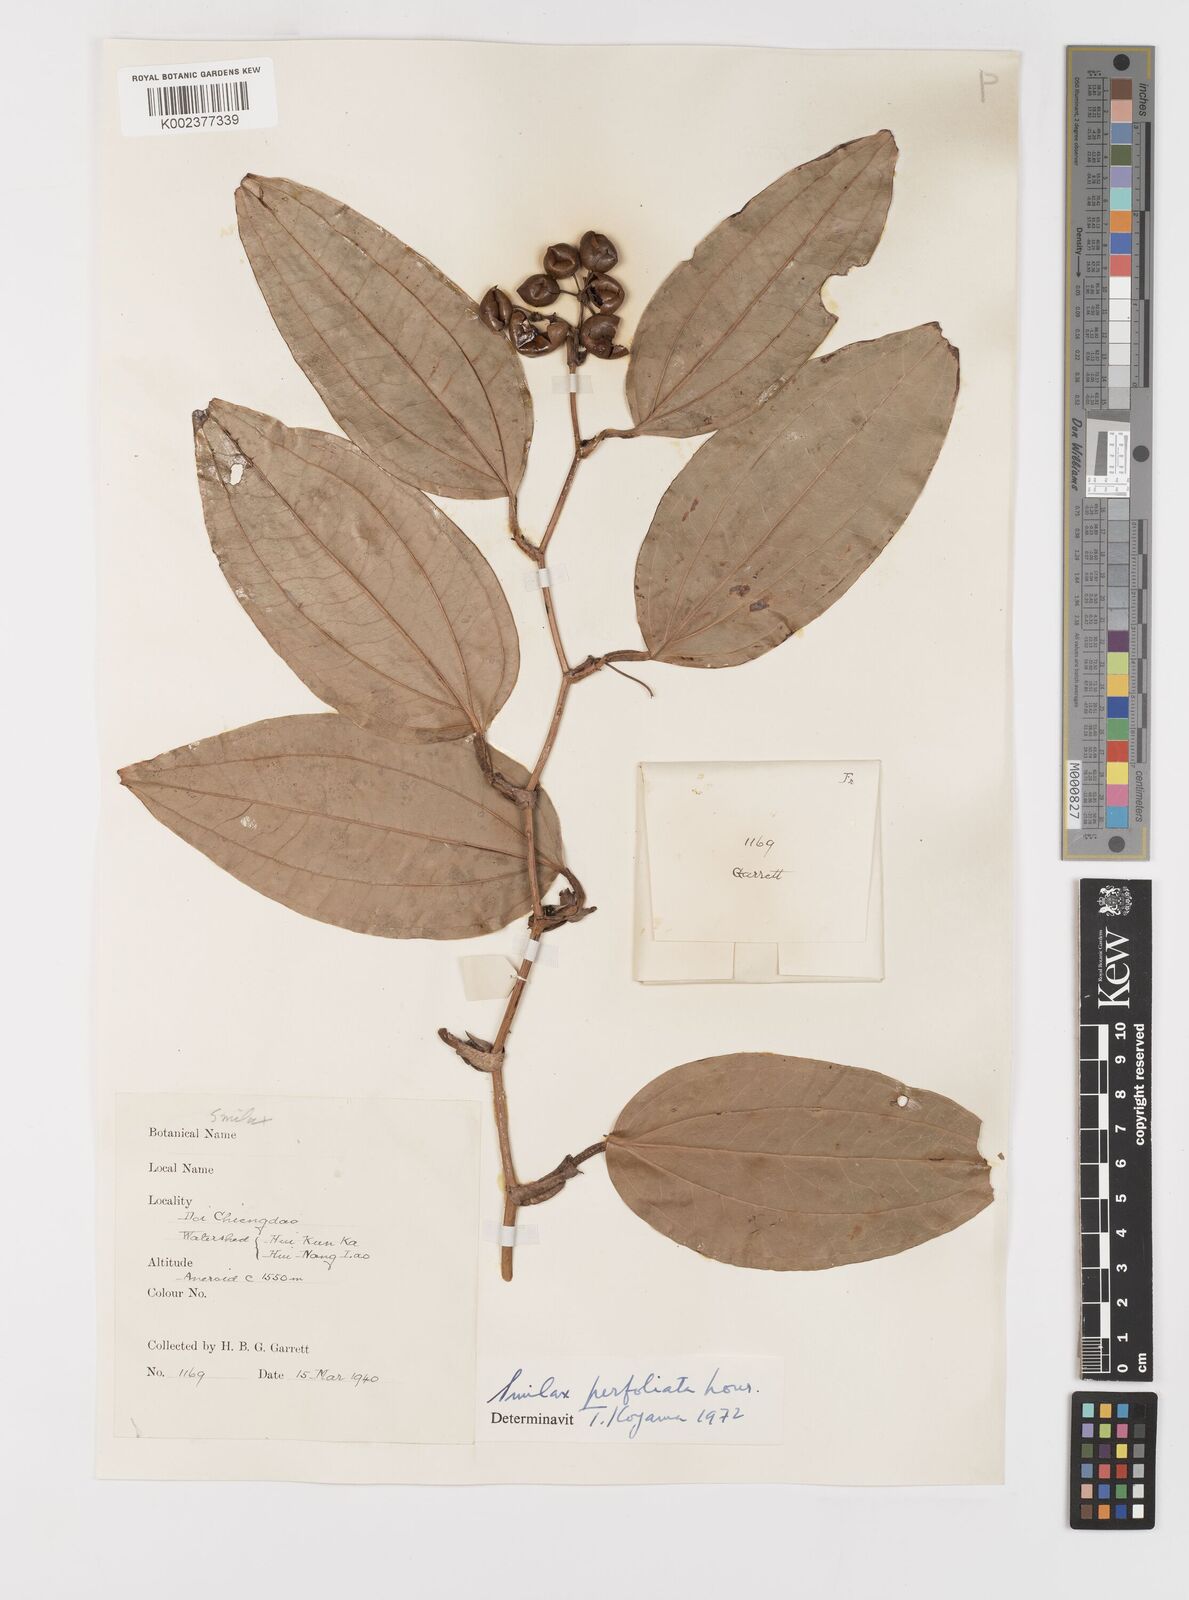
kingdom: Plantae
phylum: Tracheophyta
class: Liliopsida
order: Liliales
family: Smilacaceae
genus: Smilax
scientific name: Smilax perfoliata
